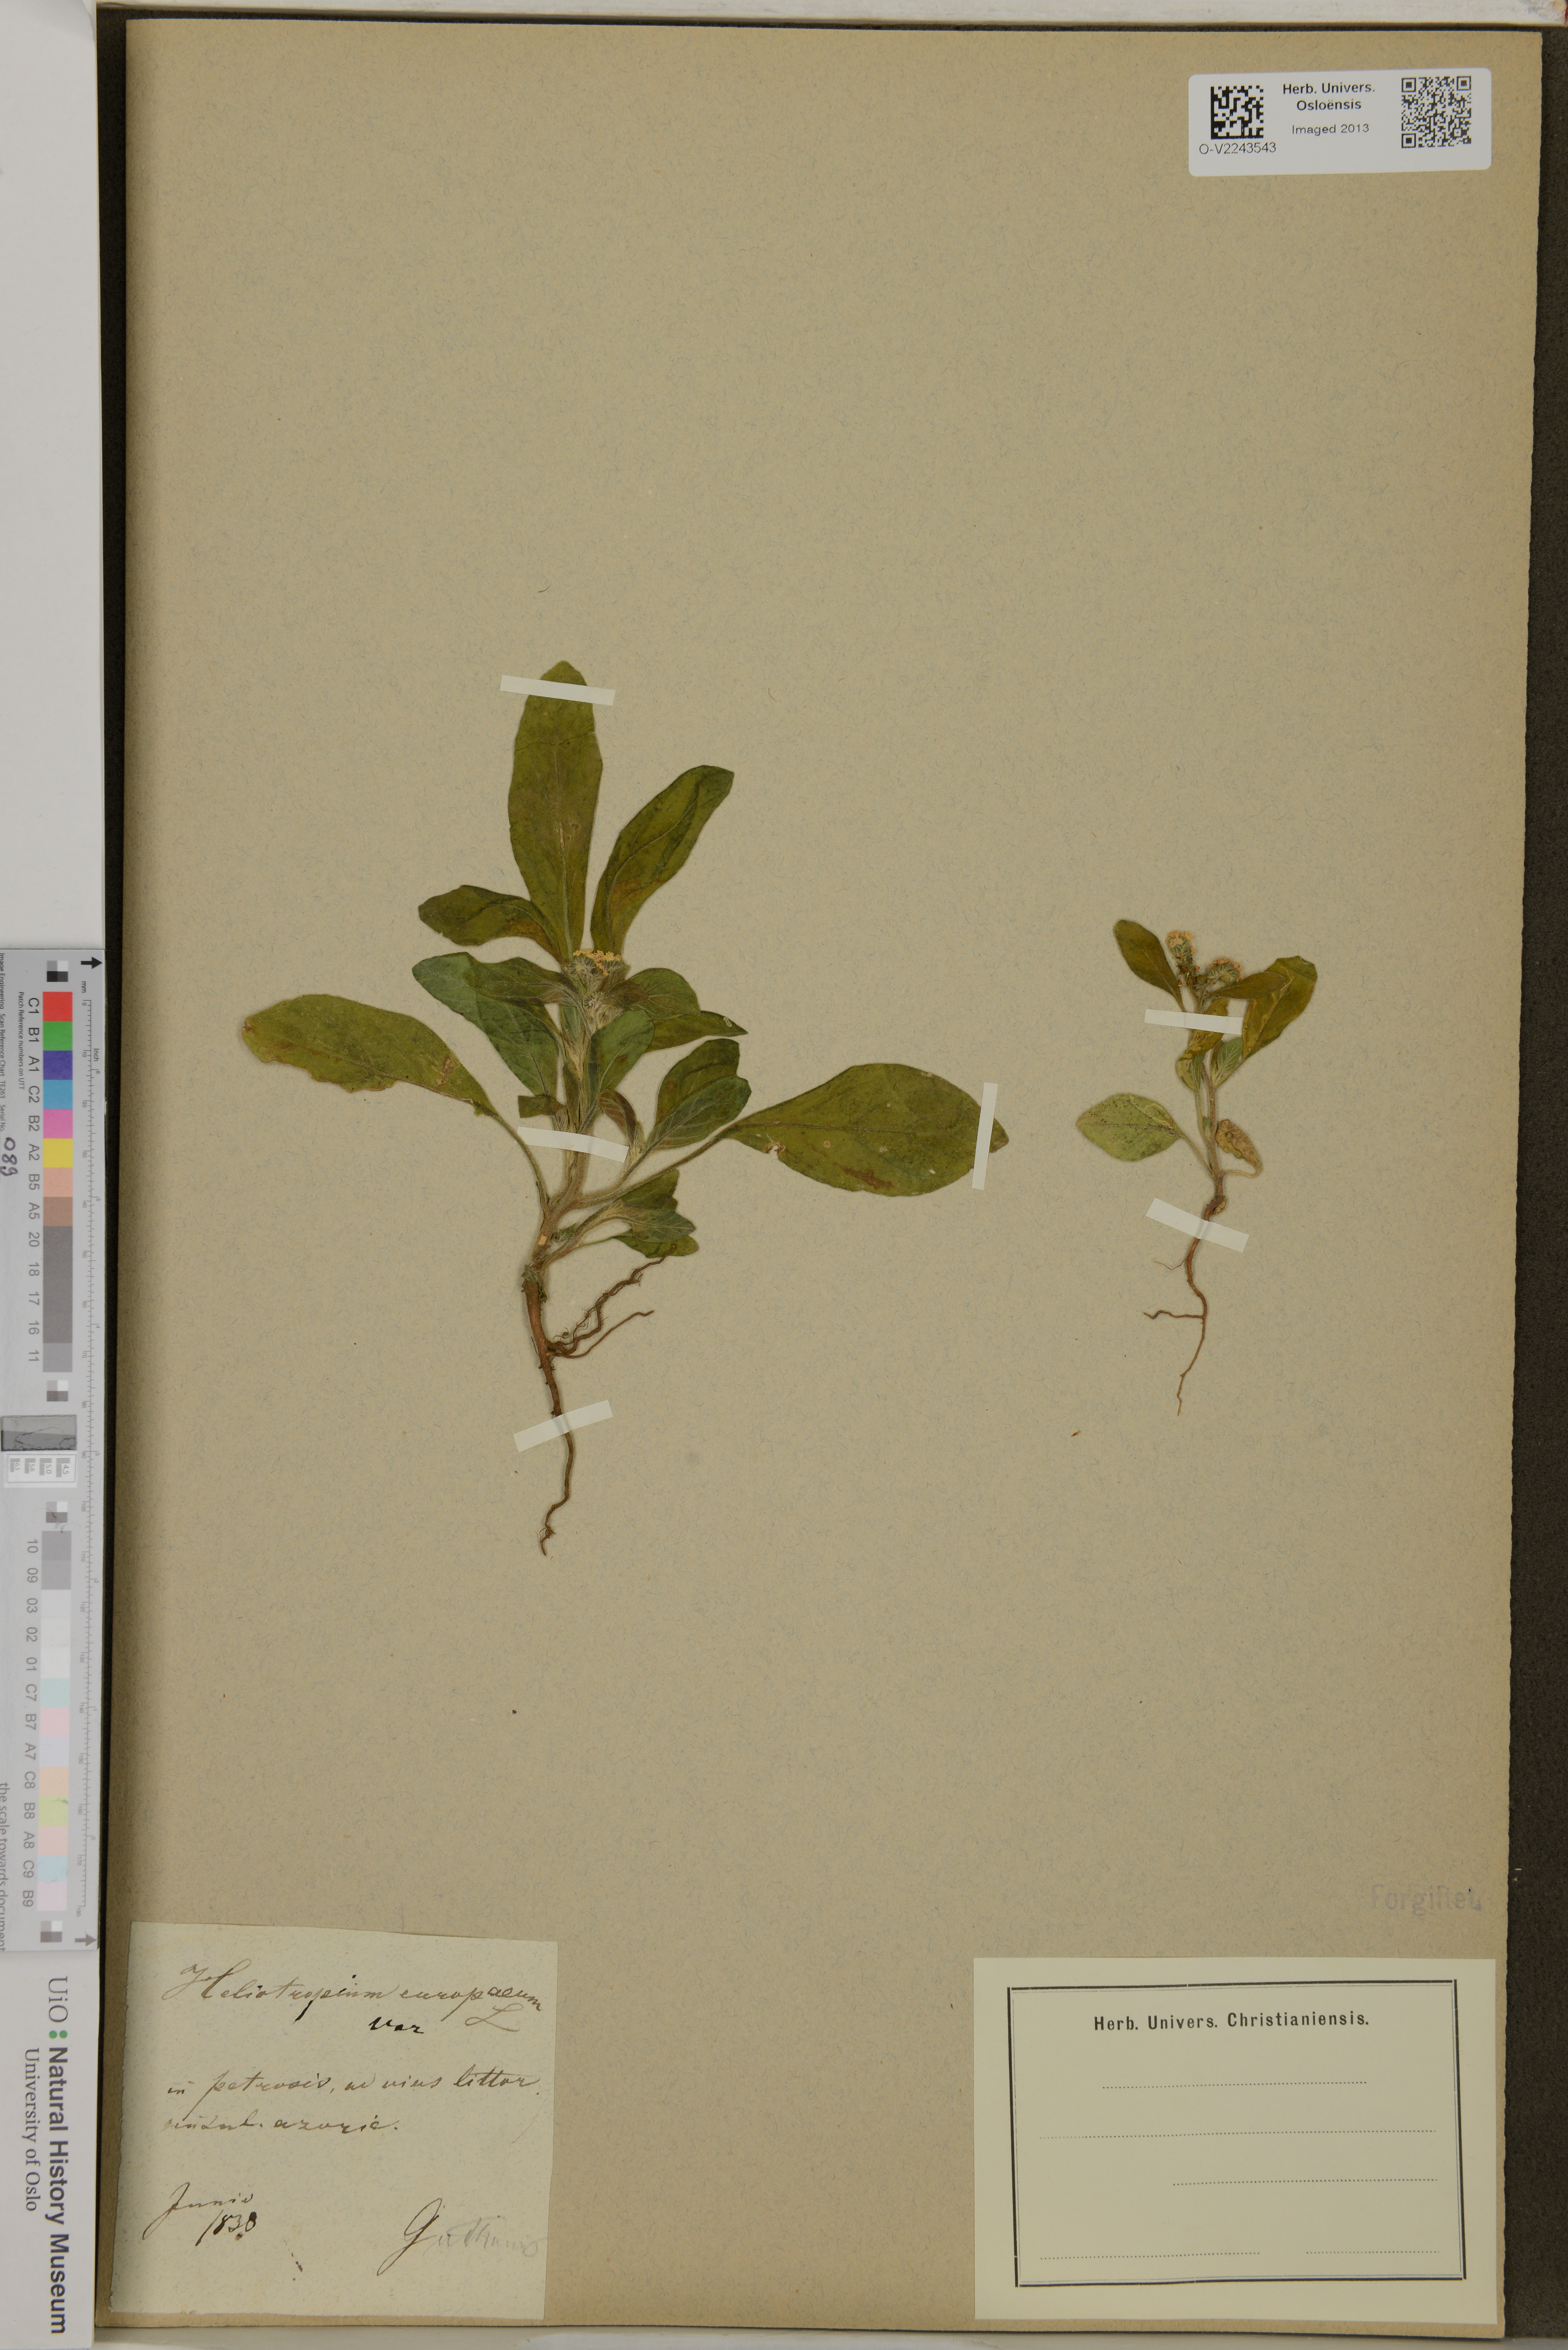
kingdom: Plantae
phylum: Tracheophyta
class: Magnoliopsida
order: Boraginales
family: Heliotropiaceae
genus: Heliotropium
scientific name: Heliotropium europaeum
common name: European heliotrope
